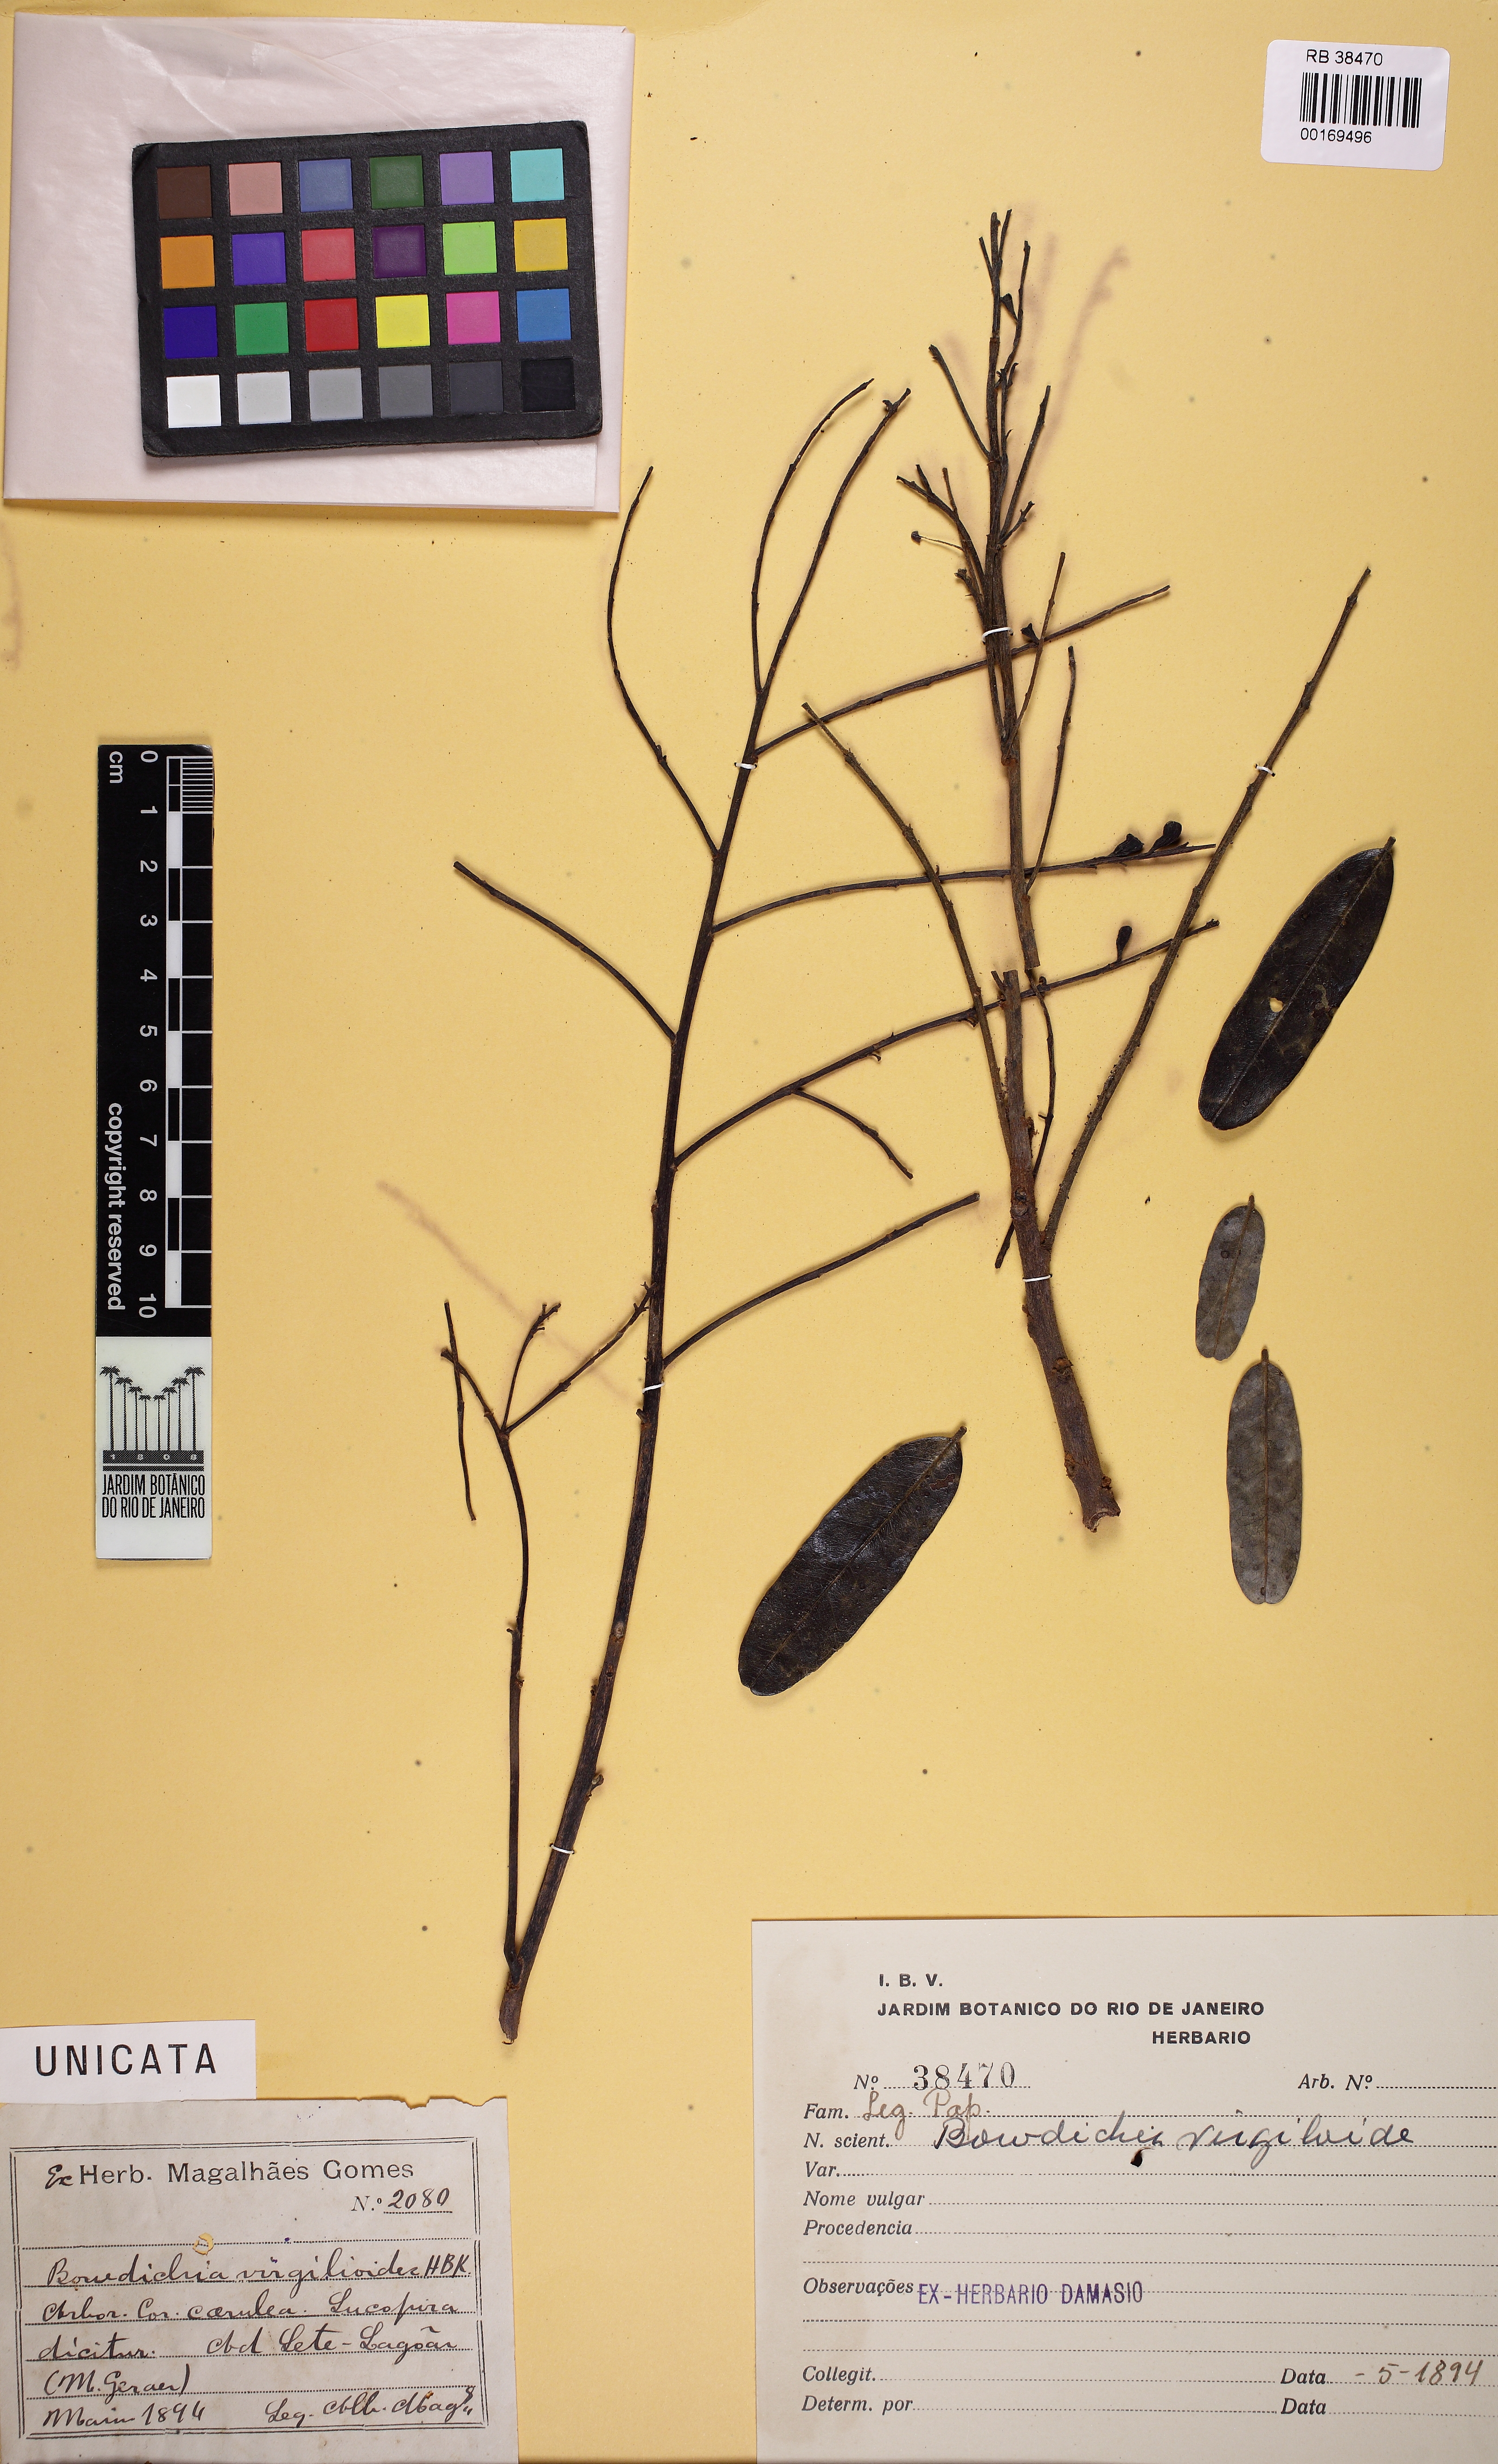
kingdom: Plantae
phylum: Tracheophyta
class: Magnoliopsida
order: Fabales
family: Fabaceae
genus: Bowdichia
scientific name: Bowdichia virgilioides
